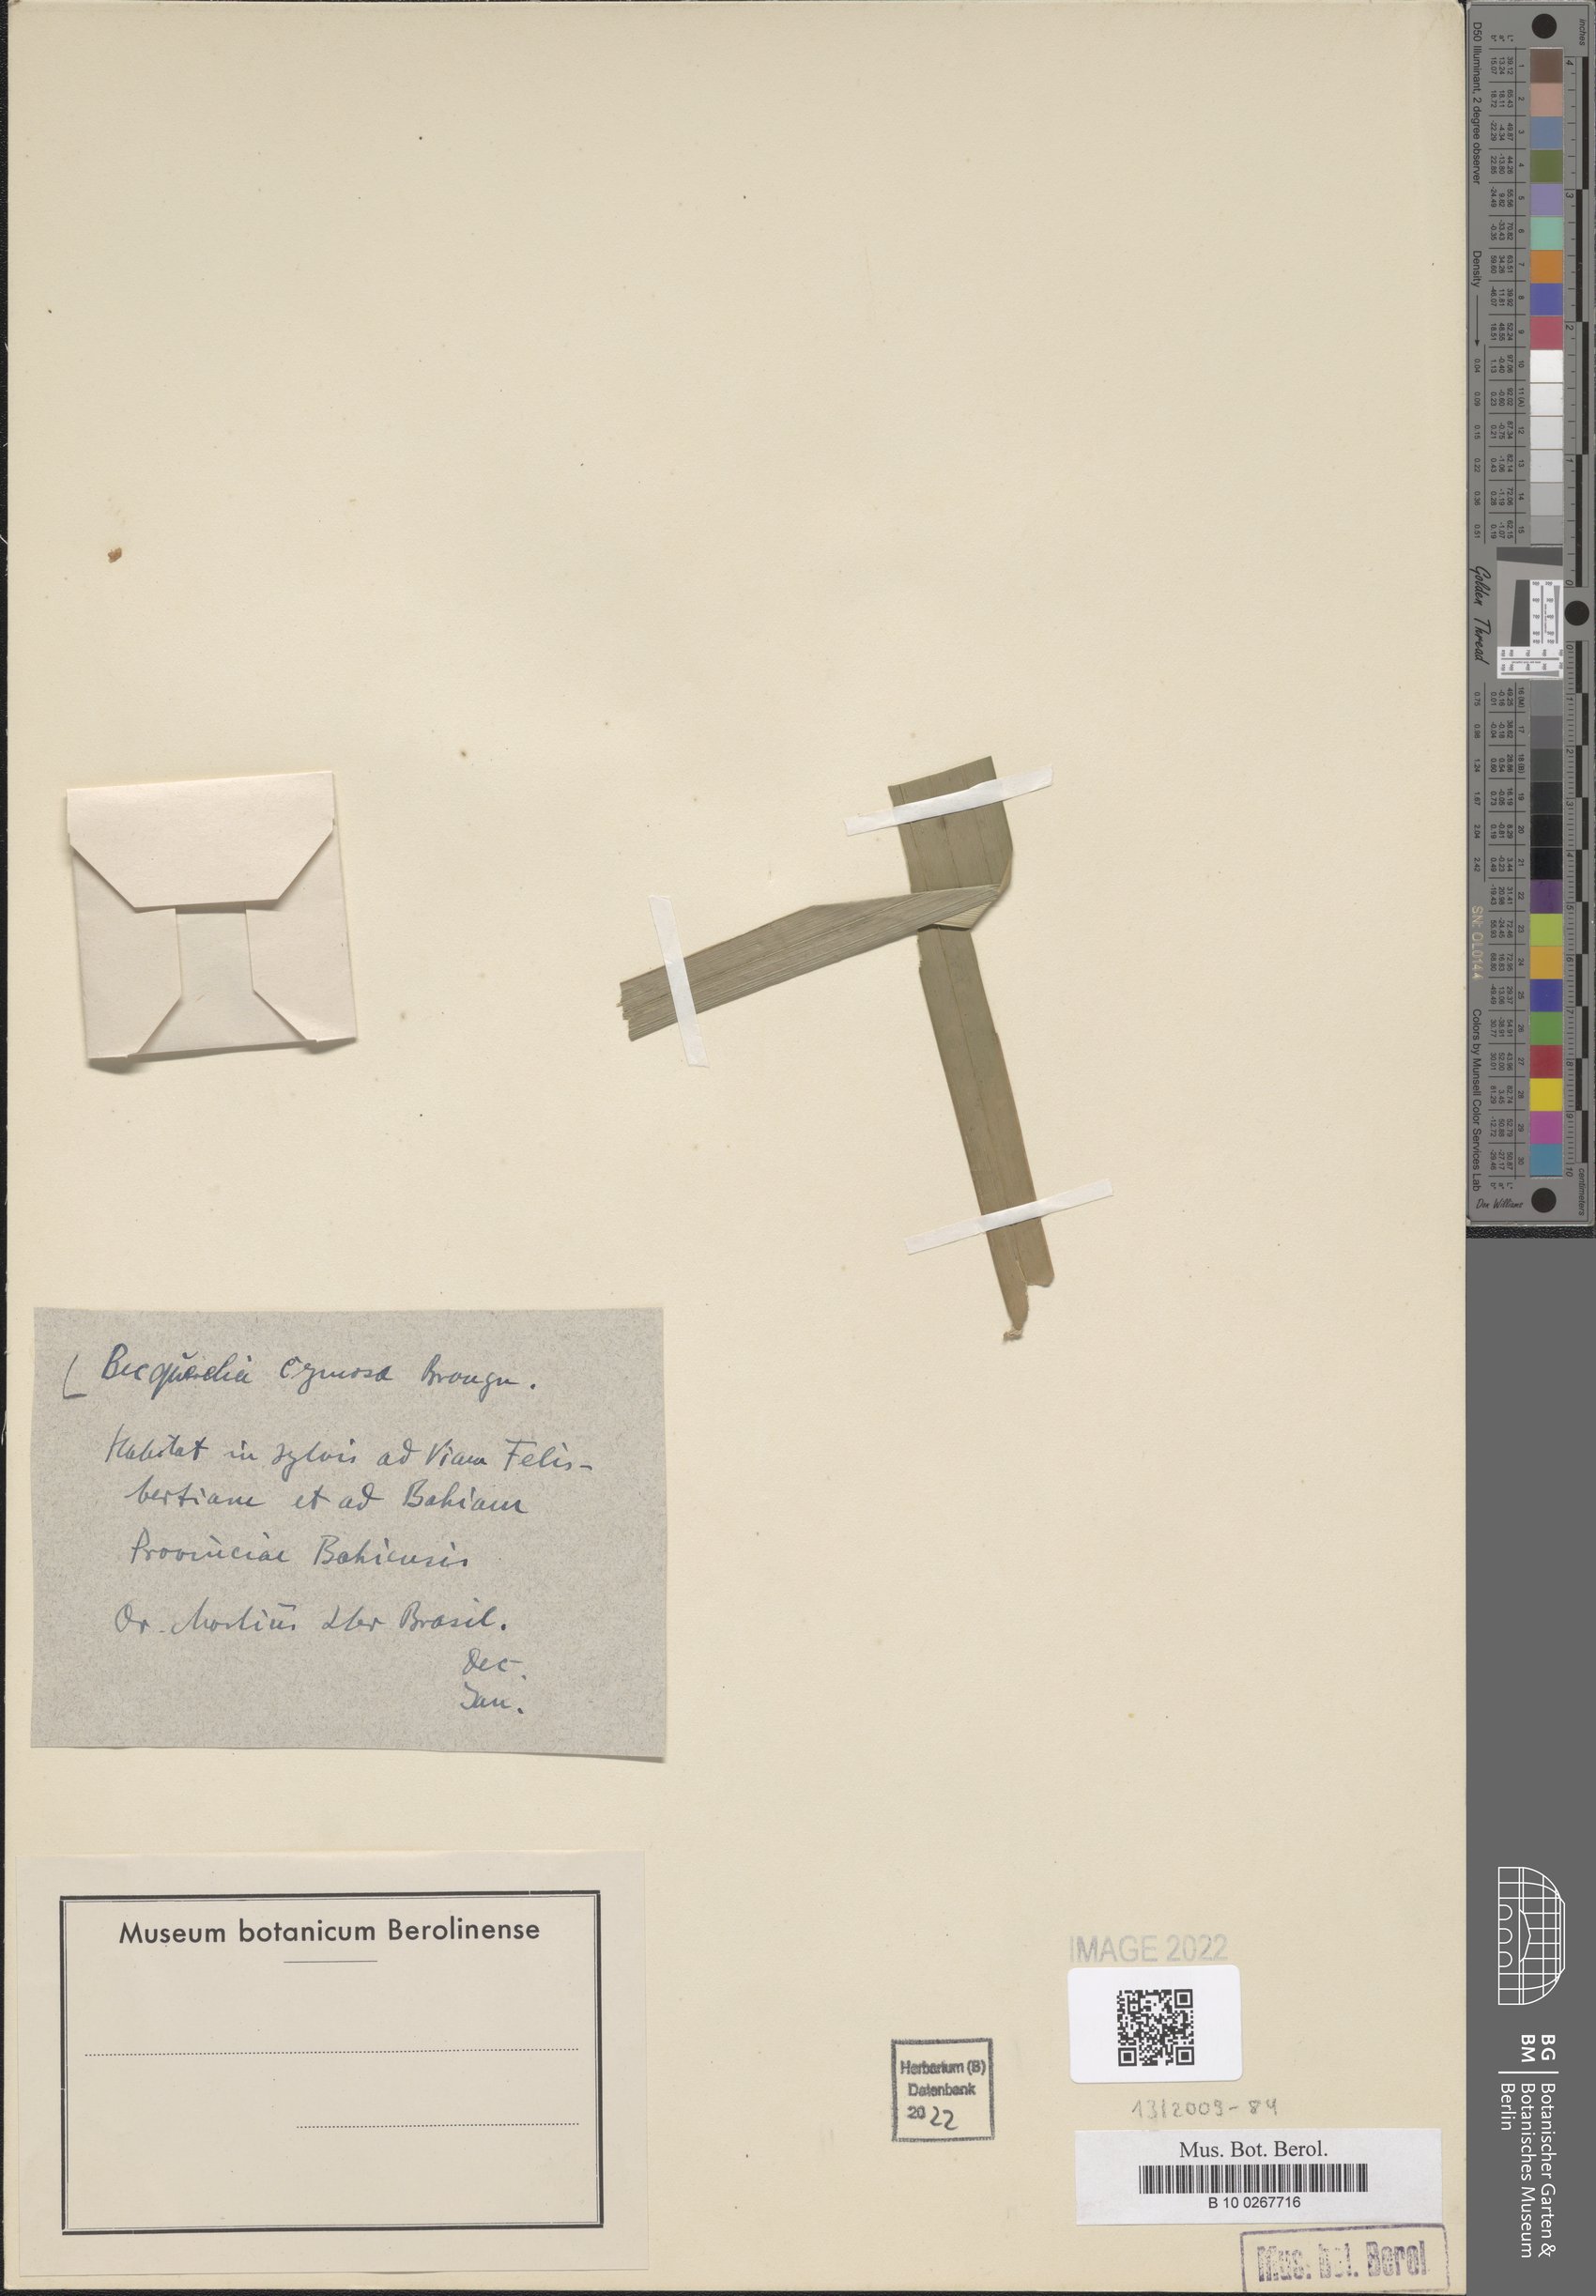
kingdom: Plantae
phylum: Tracheophyta
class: Liliopsida
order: Poales
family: Cyperaceae
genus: Becquerelia
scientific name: Becquerelia cymosa
